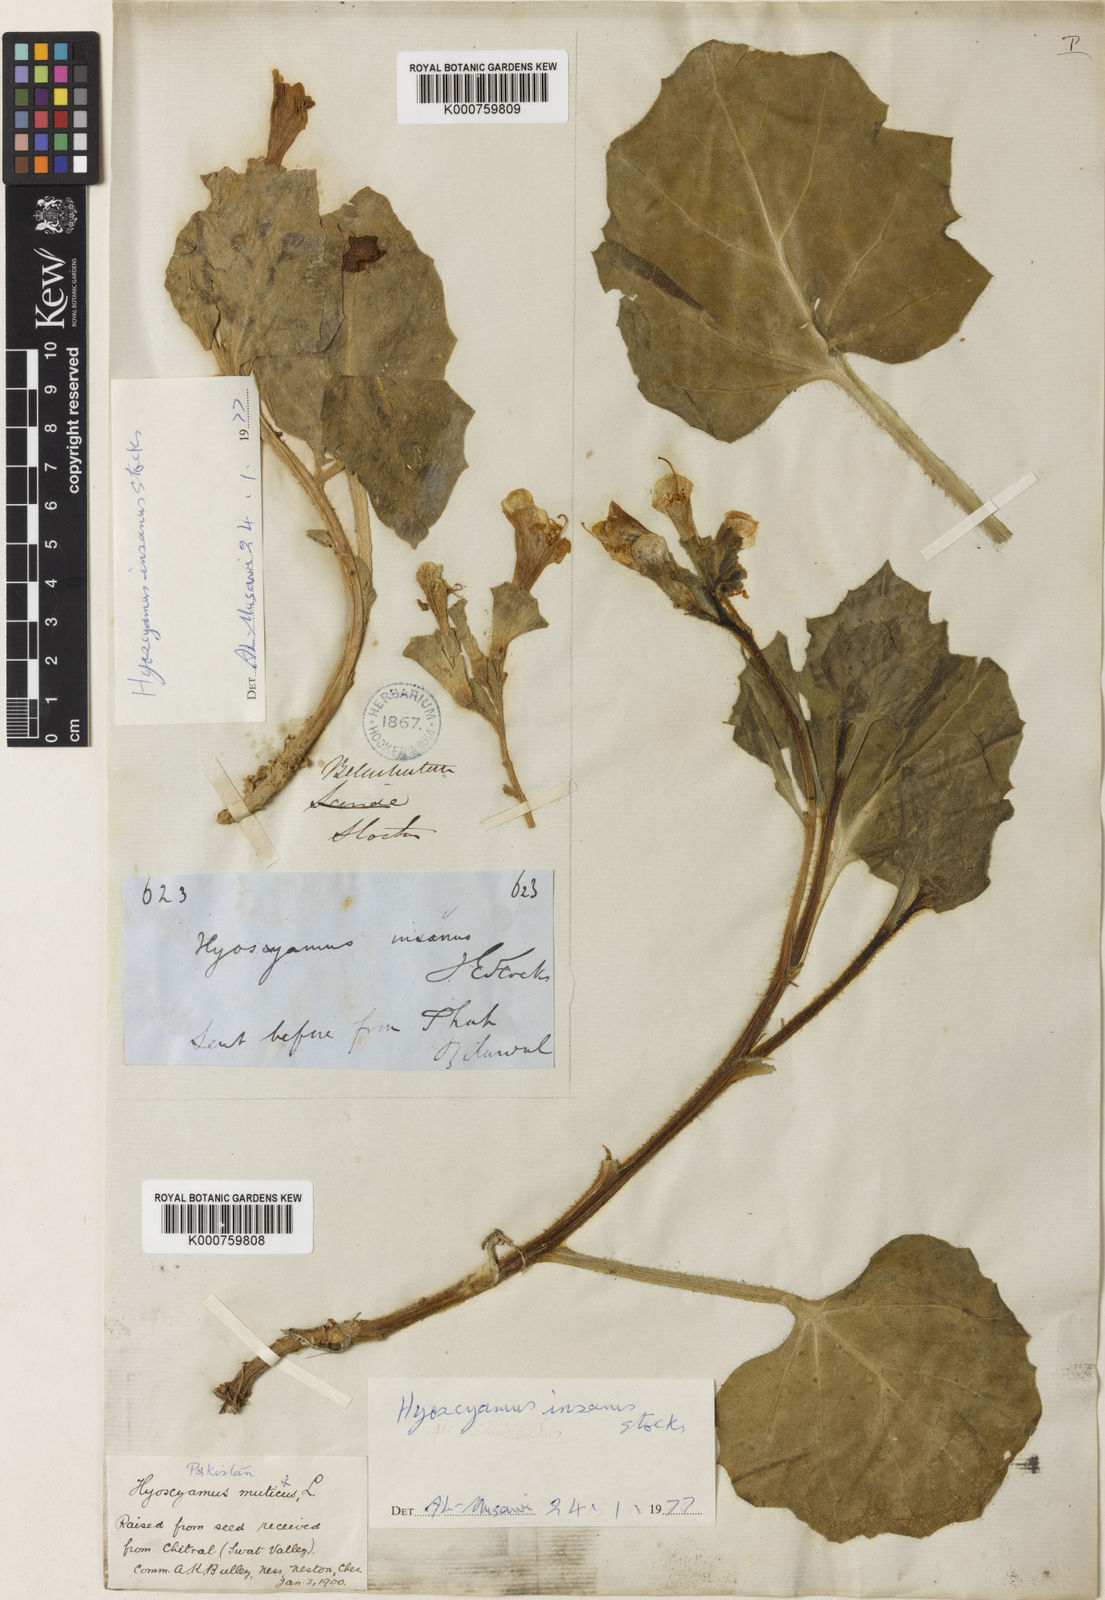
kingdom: Plantae
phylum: Tracheophyta
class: Magnoliopsida
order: Solanales
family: Solanaceae
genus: Hyoscyamus
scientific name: Hyoscyamus insanus
